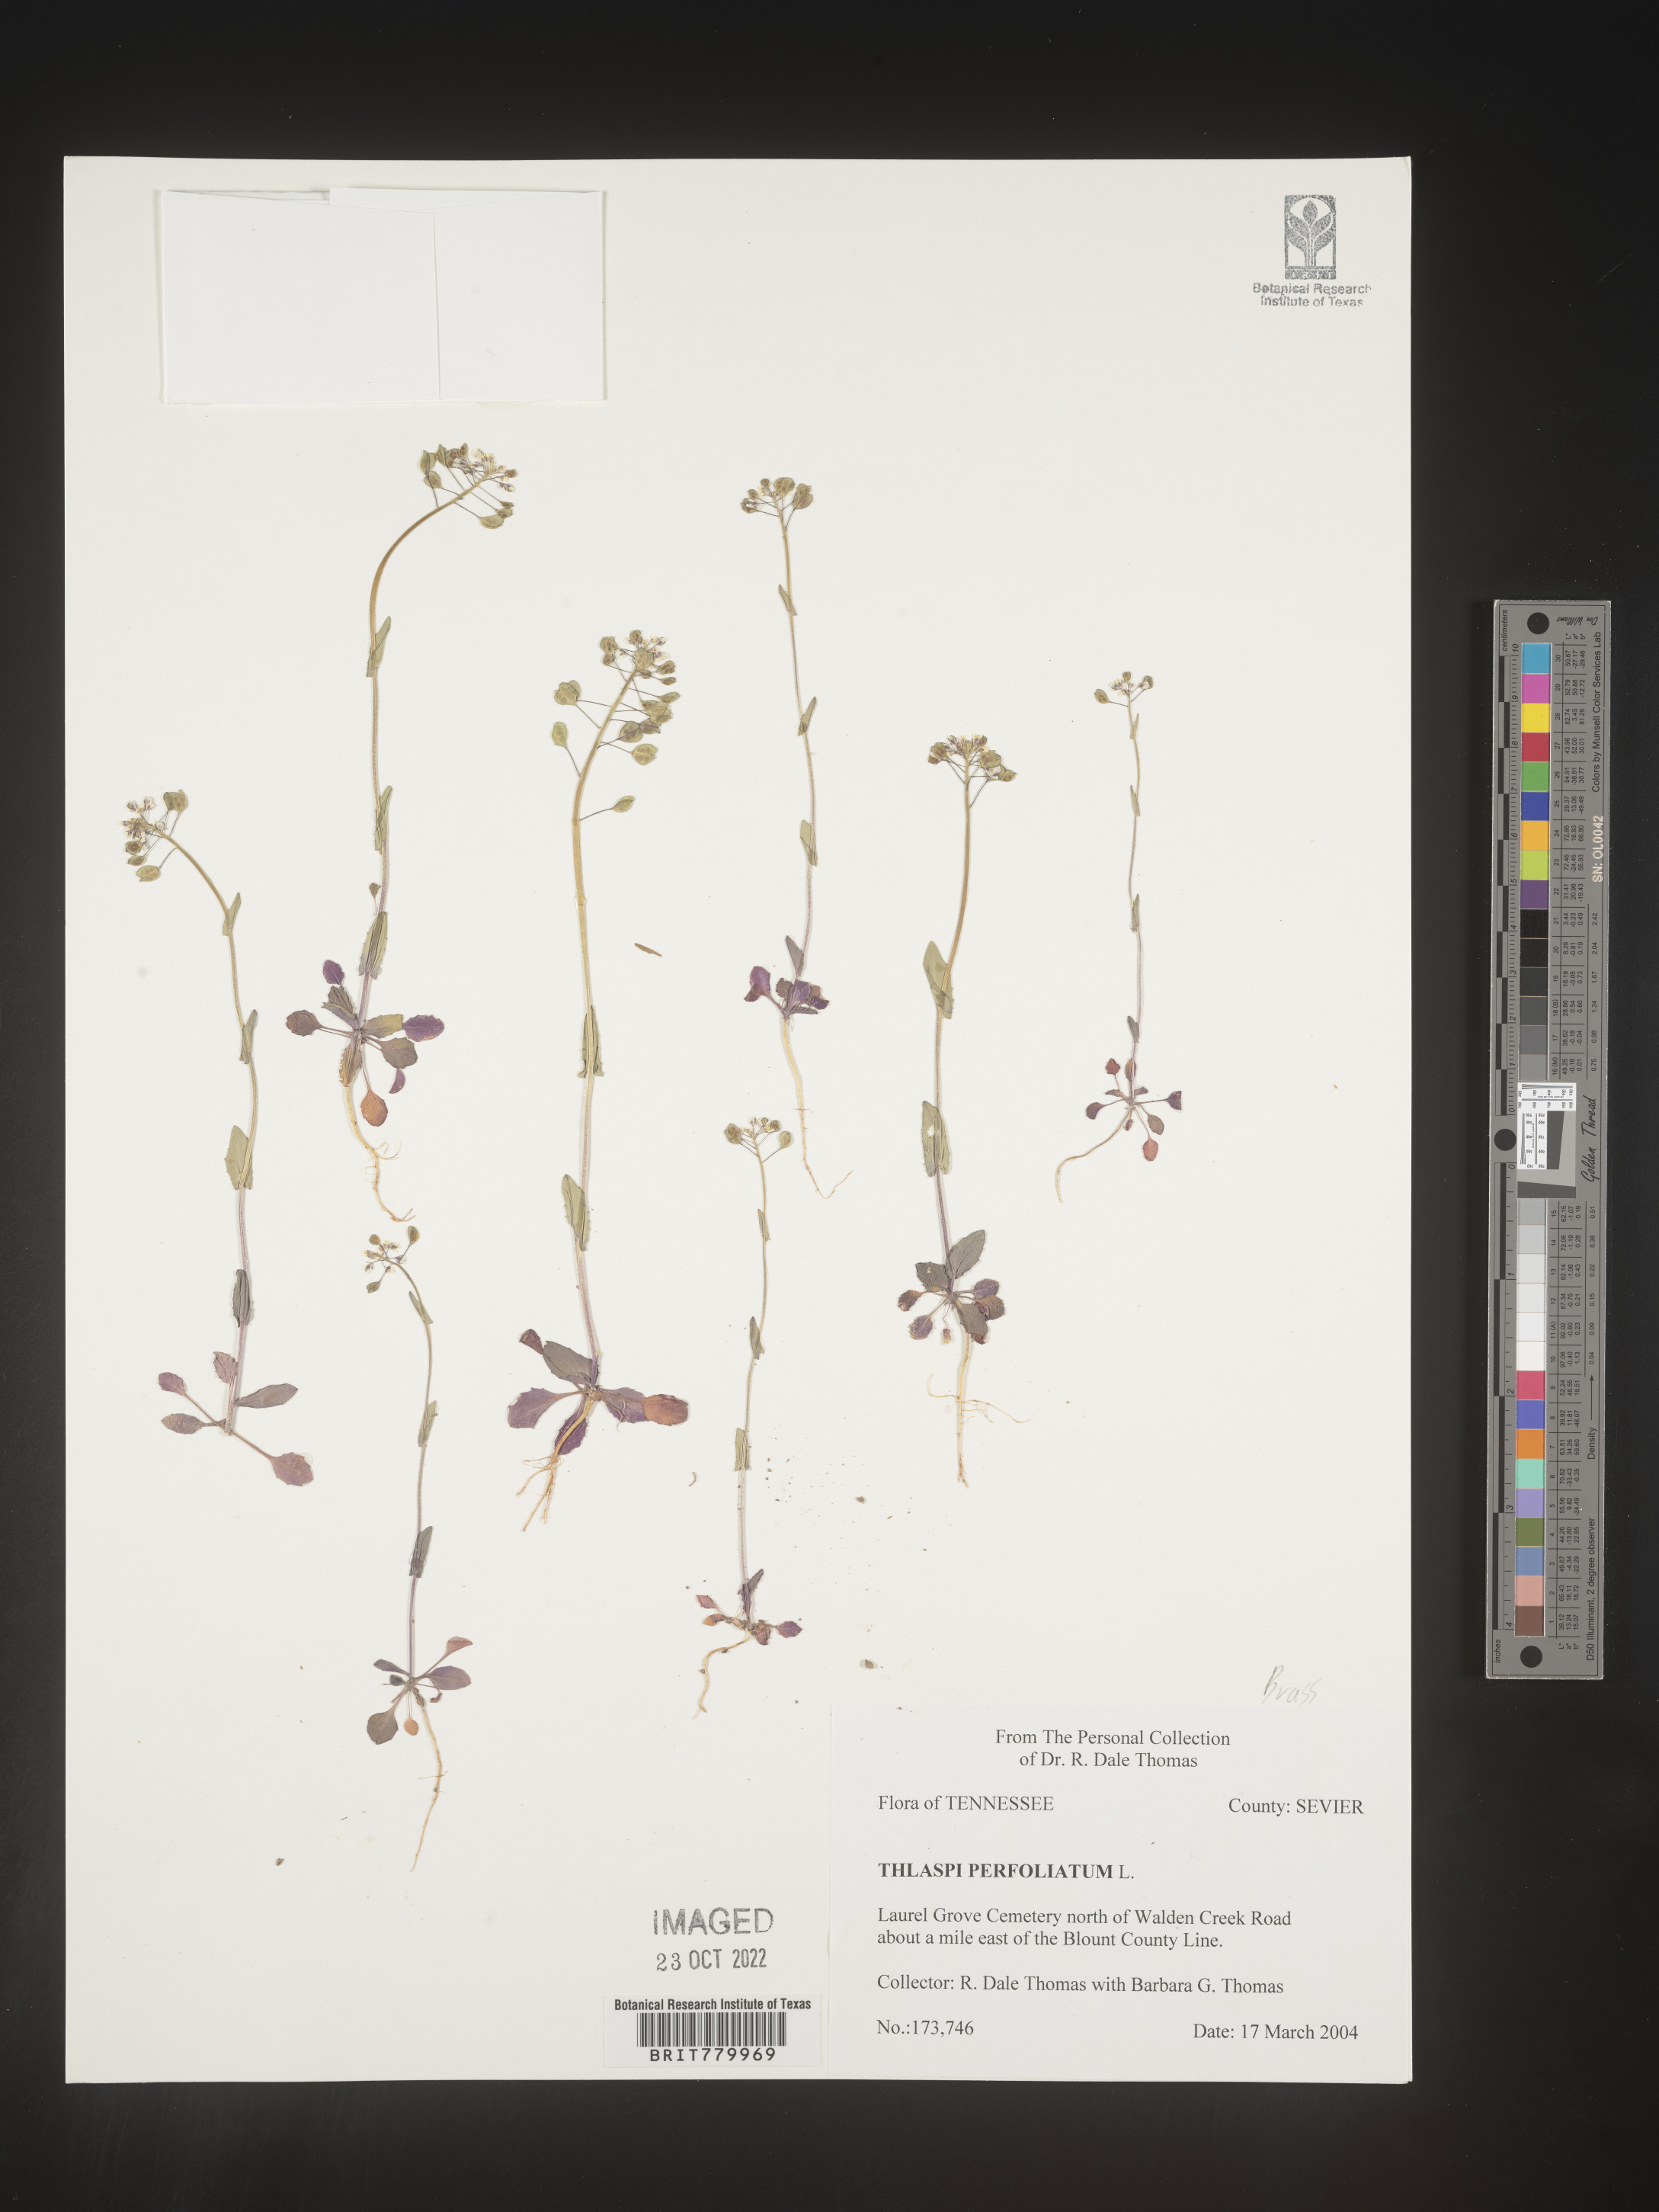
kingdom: Plantae
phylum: Tracheophyta
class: Magnoliopsida
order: Brassicales
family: Brassicaceae
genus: Thlaspi
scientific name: Thlaspi
